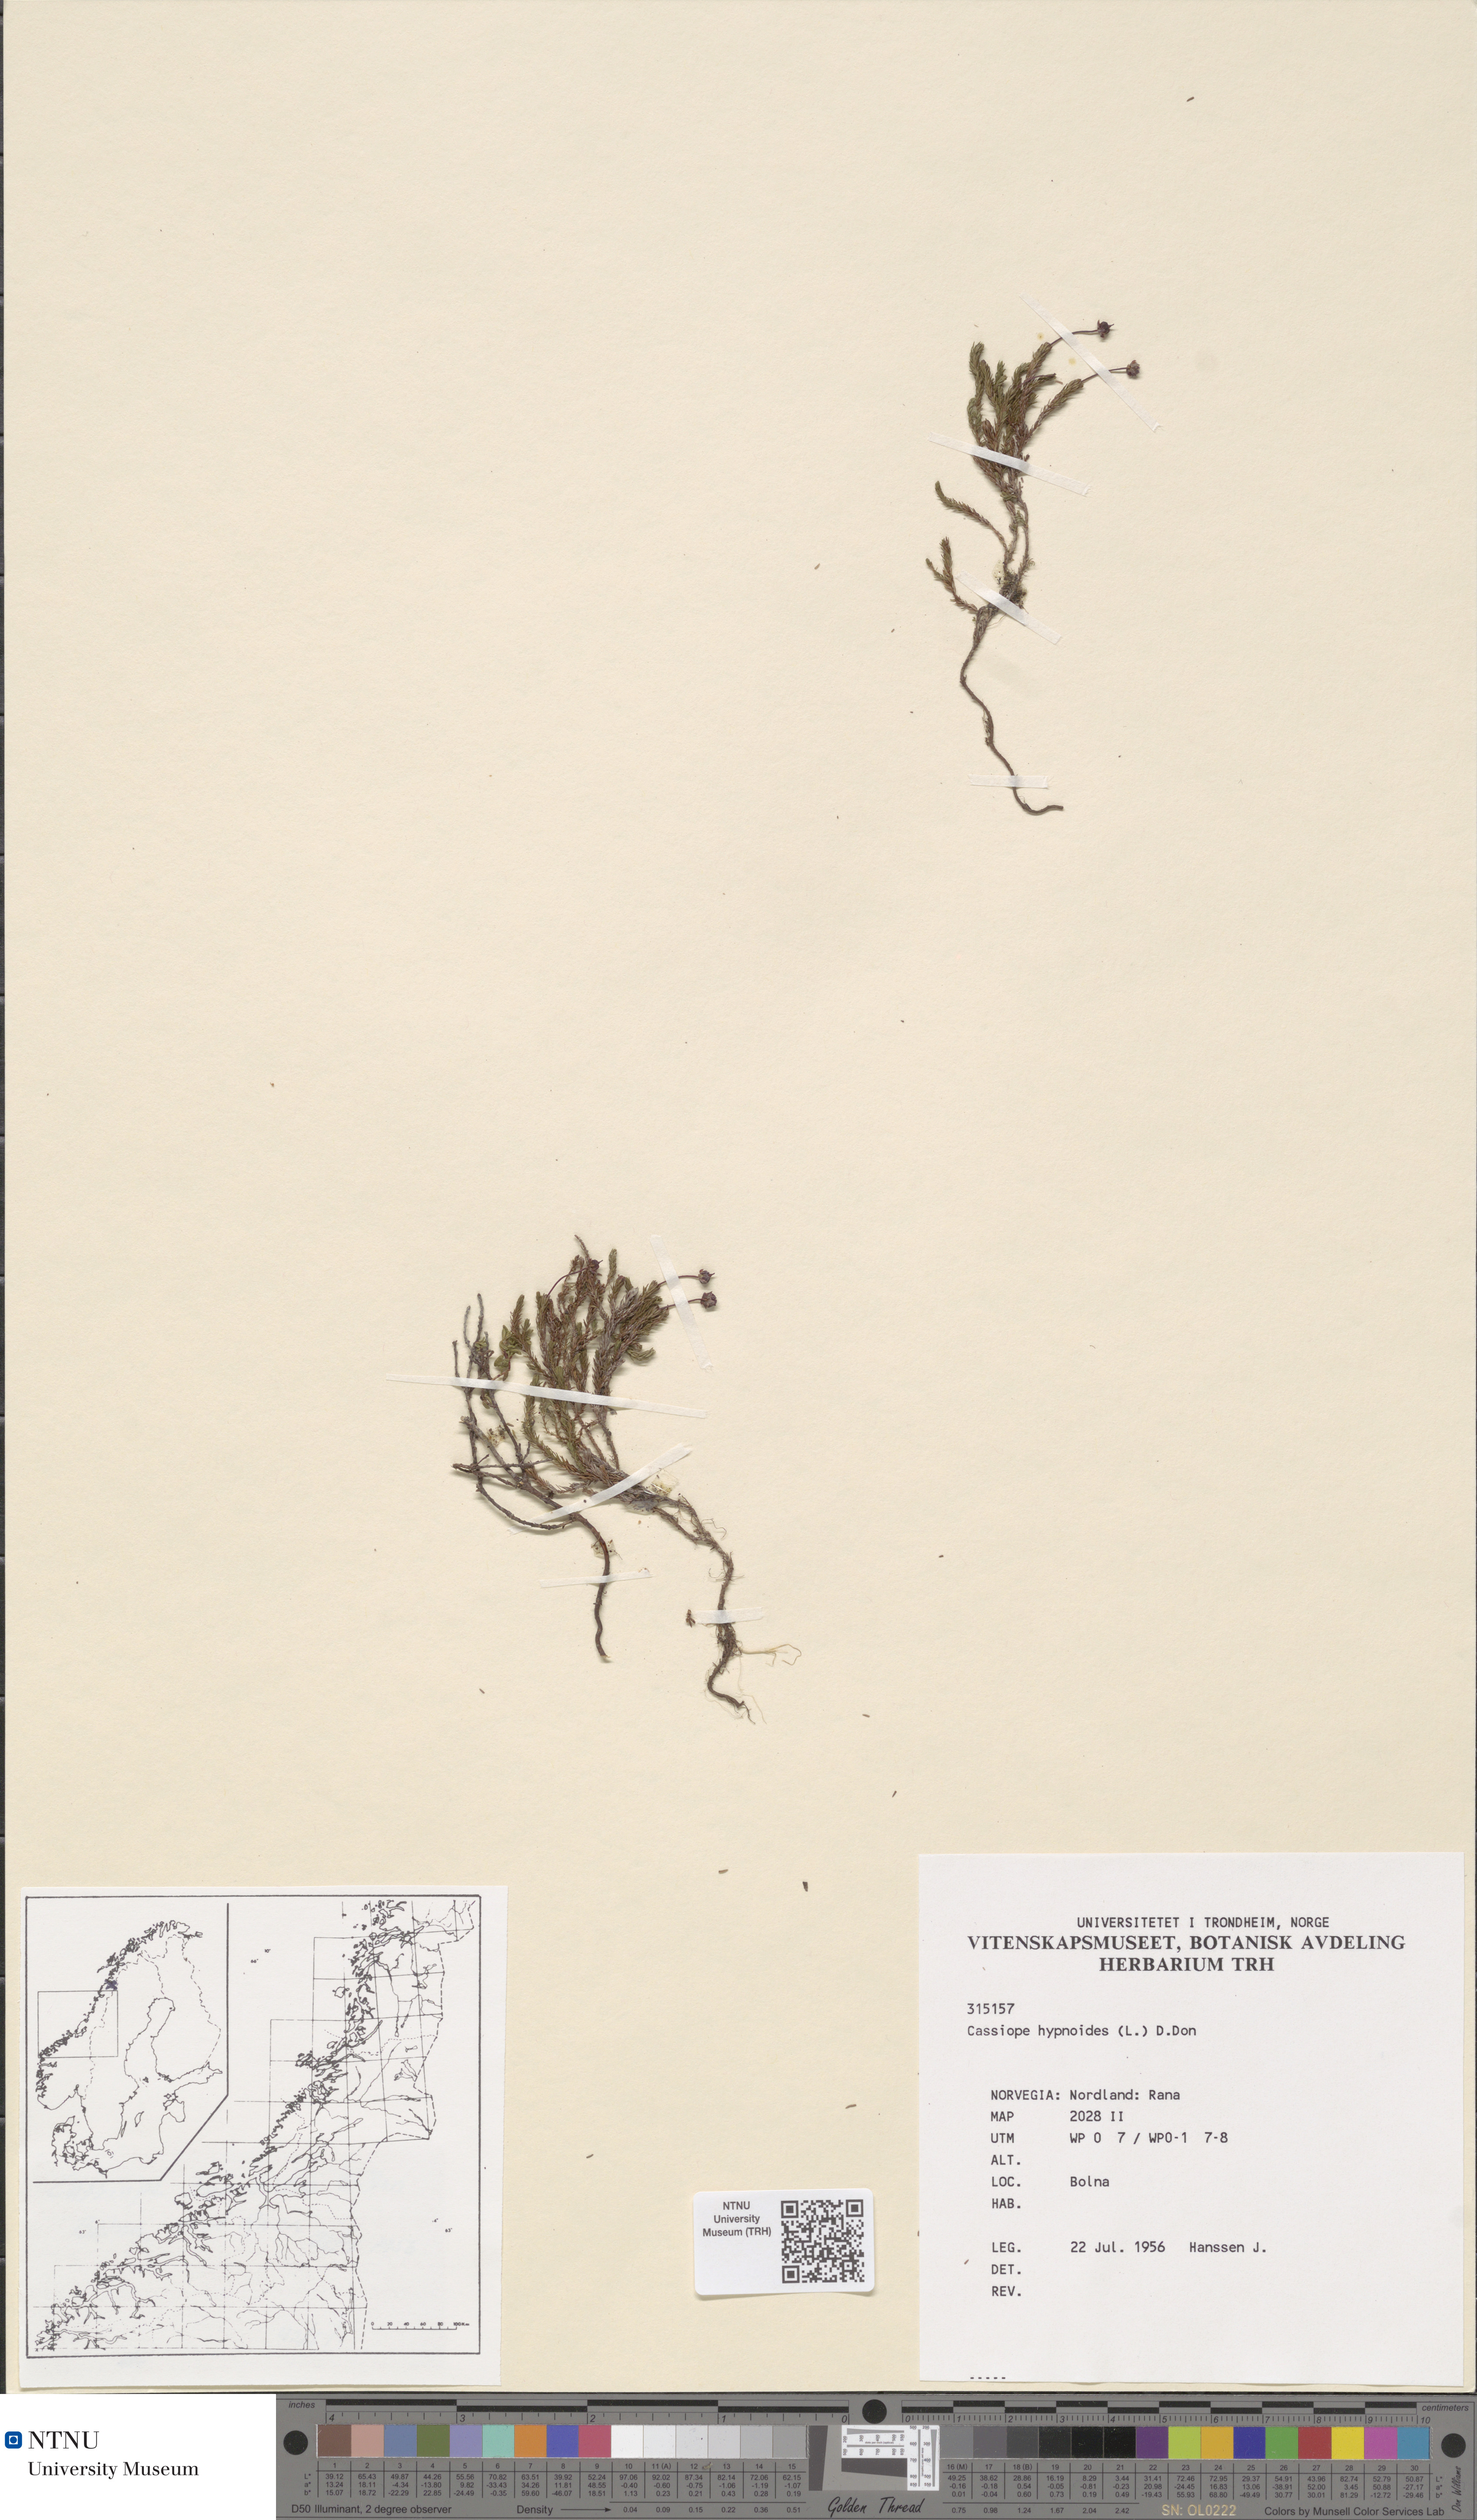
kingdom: Plantae
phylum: Tracheophyta
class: Magnoliopsida
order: Ericales
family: Ericaceae
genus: Harrimanella
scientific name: Harrimanella hypnoides
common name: Moss bell heather
